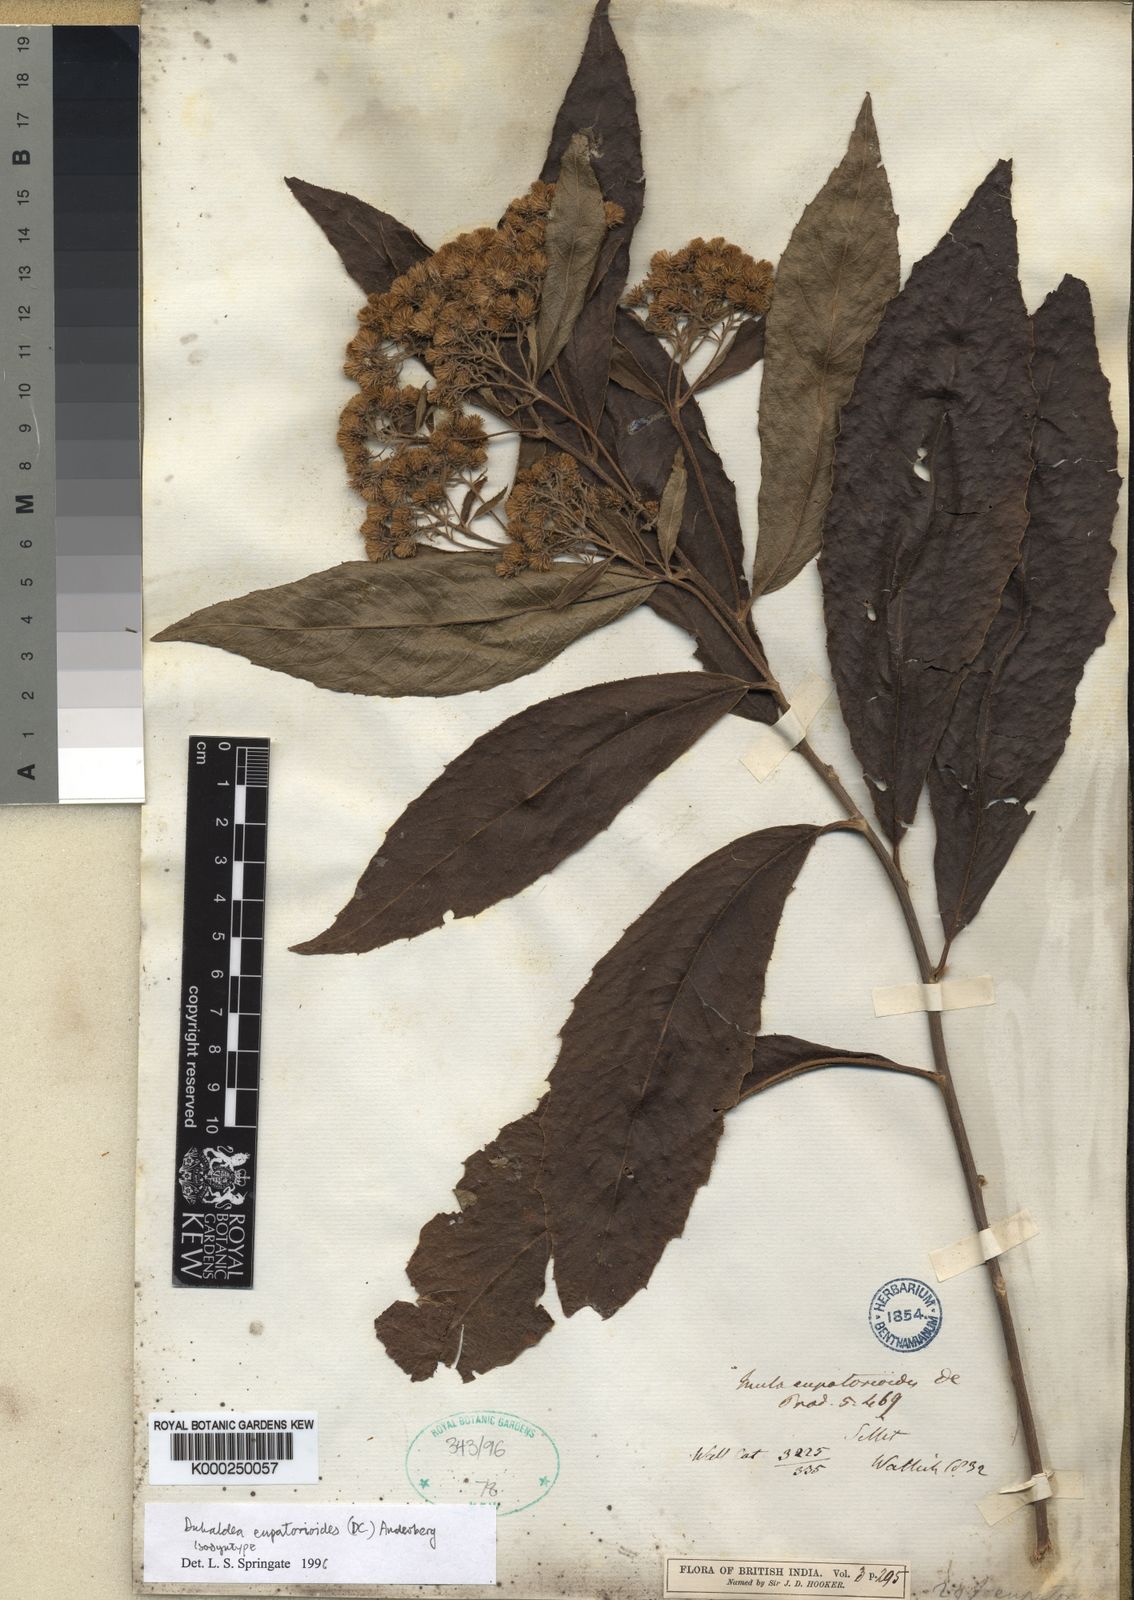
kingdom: Plantae
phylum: Tracheophyta
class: Magnoliopsida
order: Asterales
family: Asteraceae
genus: Duhaldea
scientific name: Duhaldea eupatorioides
